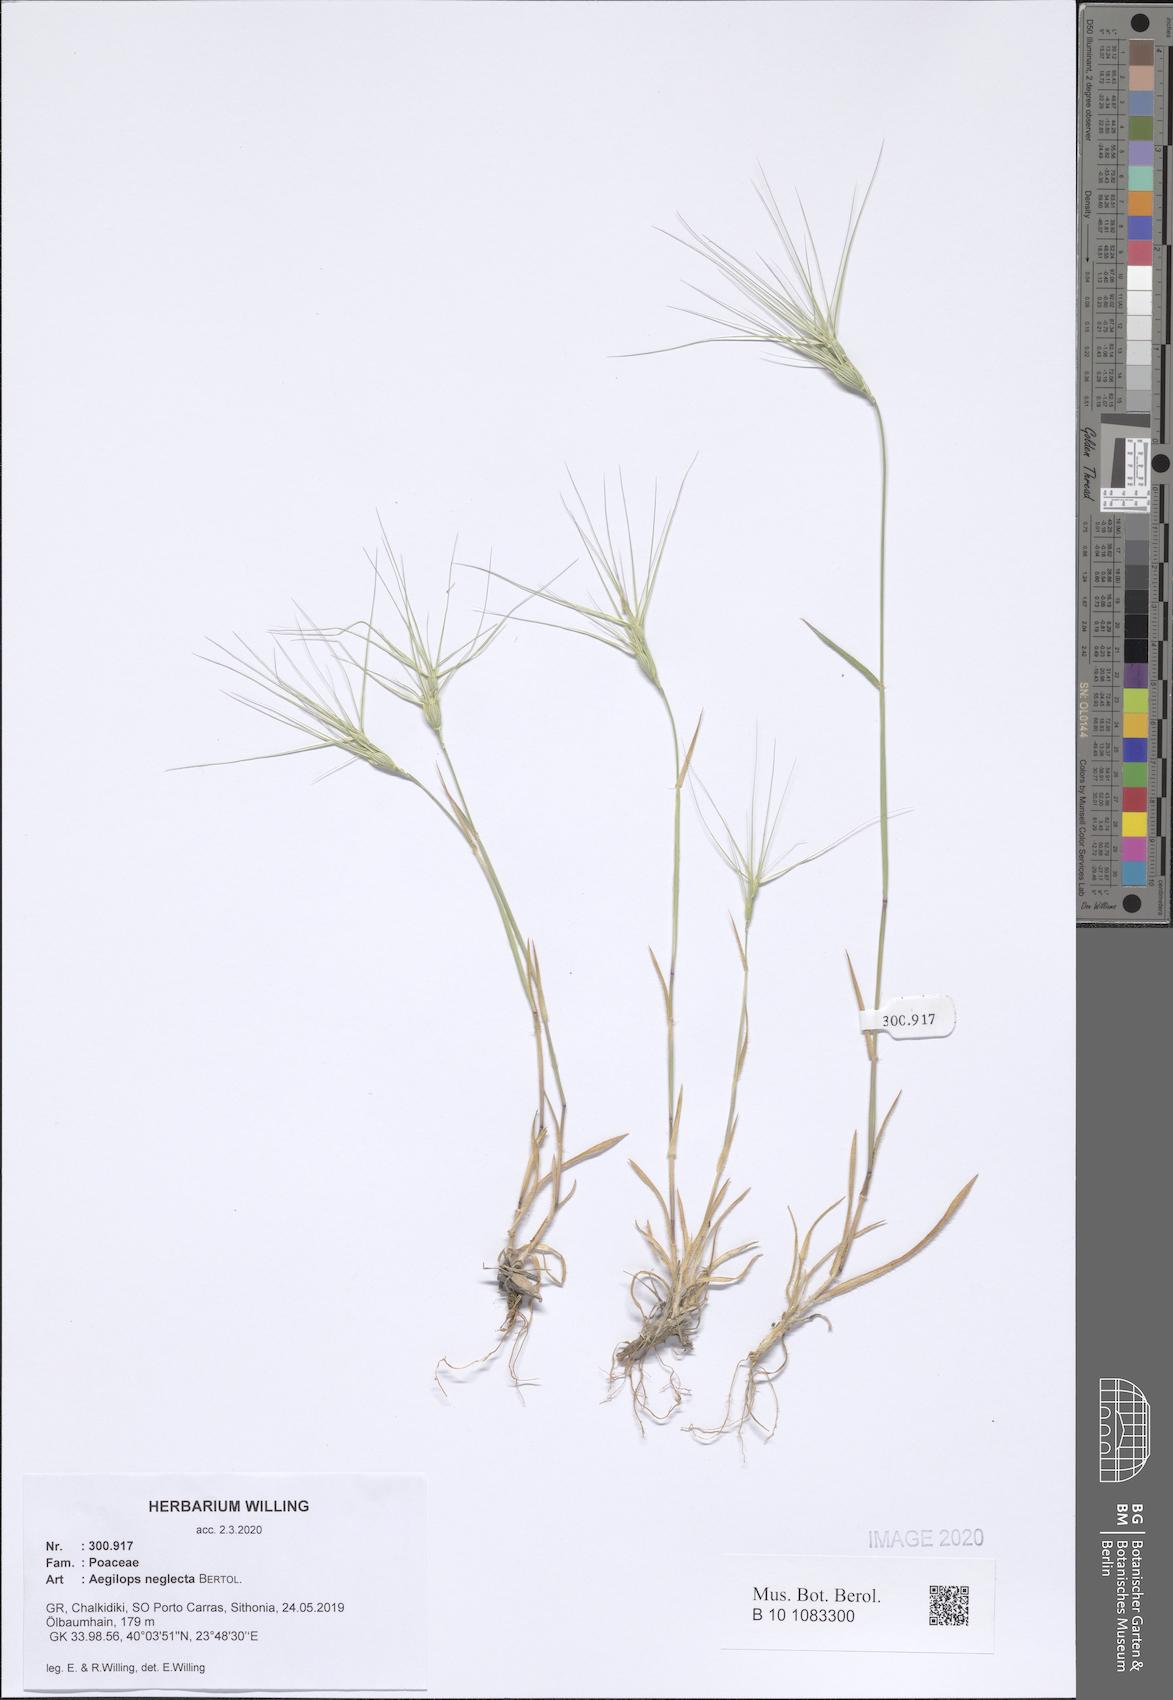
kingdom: Plantae
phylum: Tracheophyta
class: Liliopsida
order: Poales
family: Poaceae
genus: Aegilops
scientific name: Aegilops neglecta
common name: Three-awn goat grass
